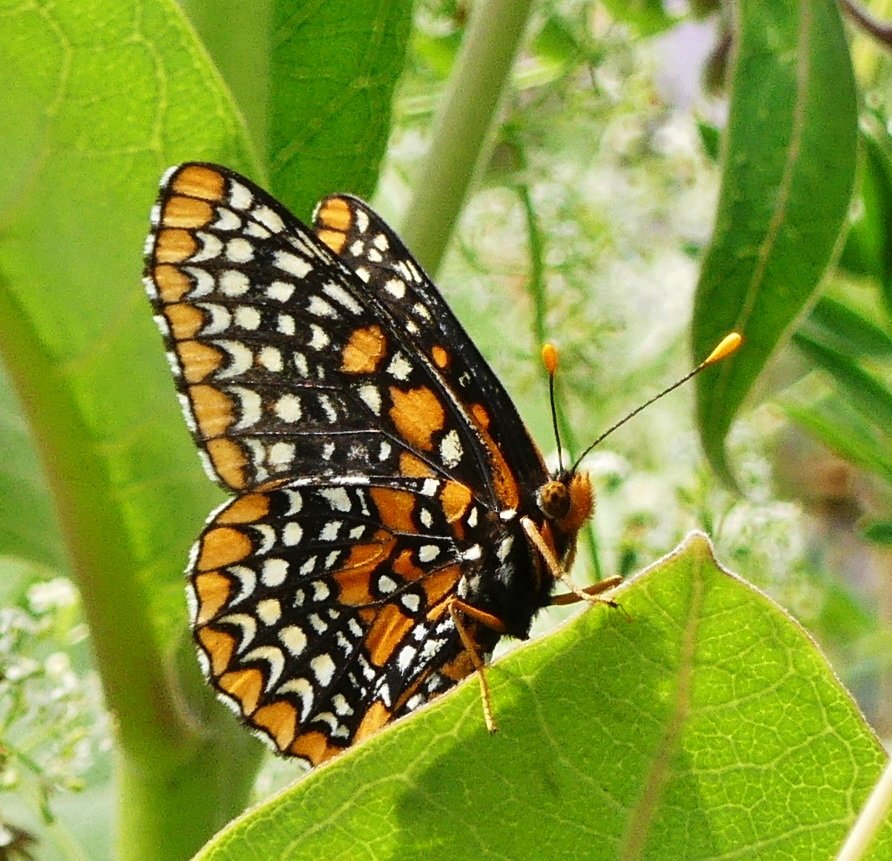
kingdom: Animalia
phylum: Arthropoda
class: Insecta
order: Lepidoptera
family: Nymphalidae
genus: Euphydryas
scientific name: Euphydryas phaeton
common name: Baltimore Checkerspot
